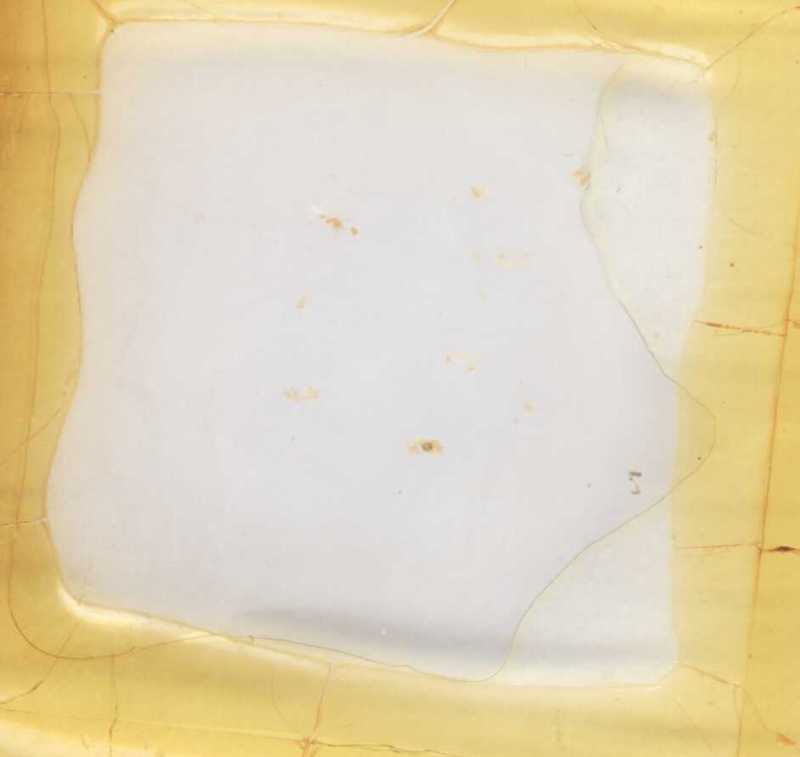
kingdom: Animalia
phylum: Arthropoda
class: Diplopoda
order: Glomerida
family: Glomeridae
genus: Gervaisia
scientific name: Gervaisia gibbula
